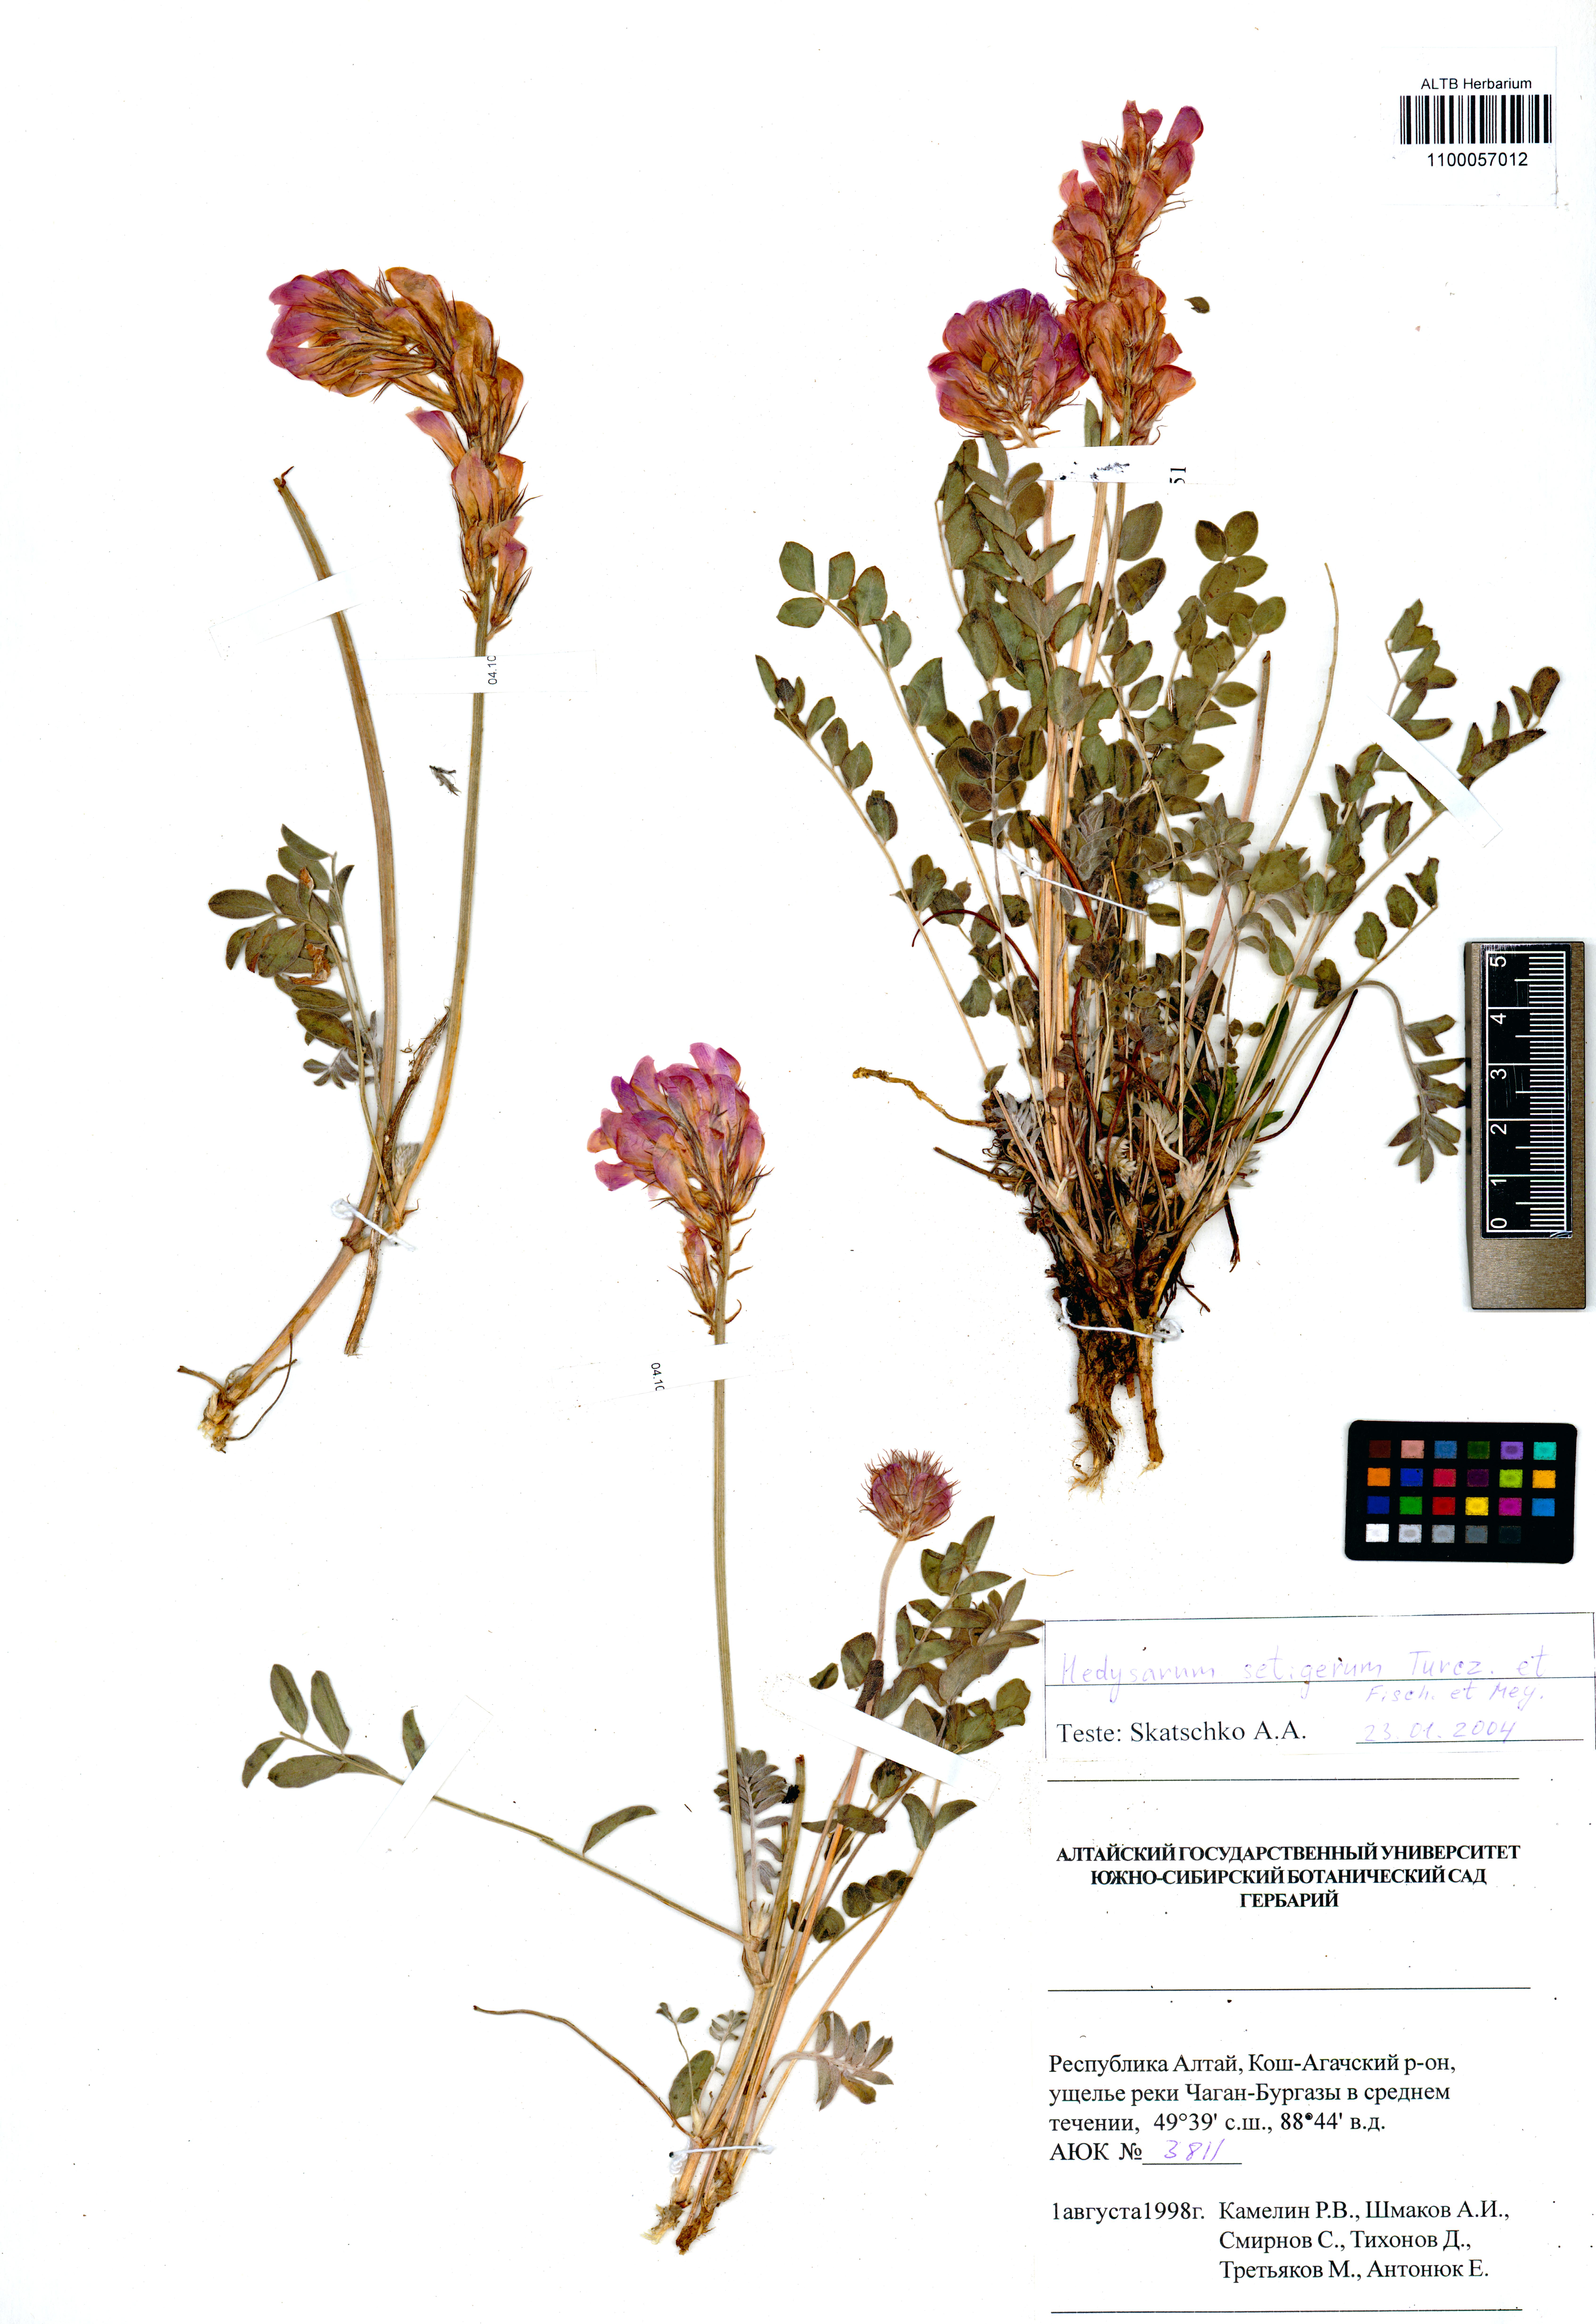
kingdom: Plantae
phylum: Tracheophyta
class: Magnoliopsida
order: Fabales
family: Fabaceae
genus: Hedysarum
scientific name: Hedysarum setigerum
